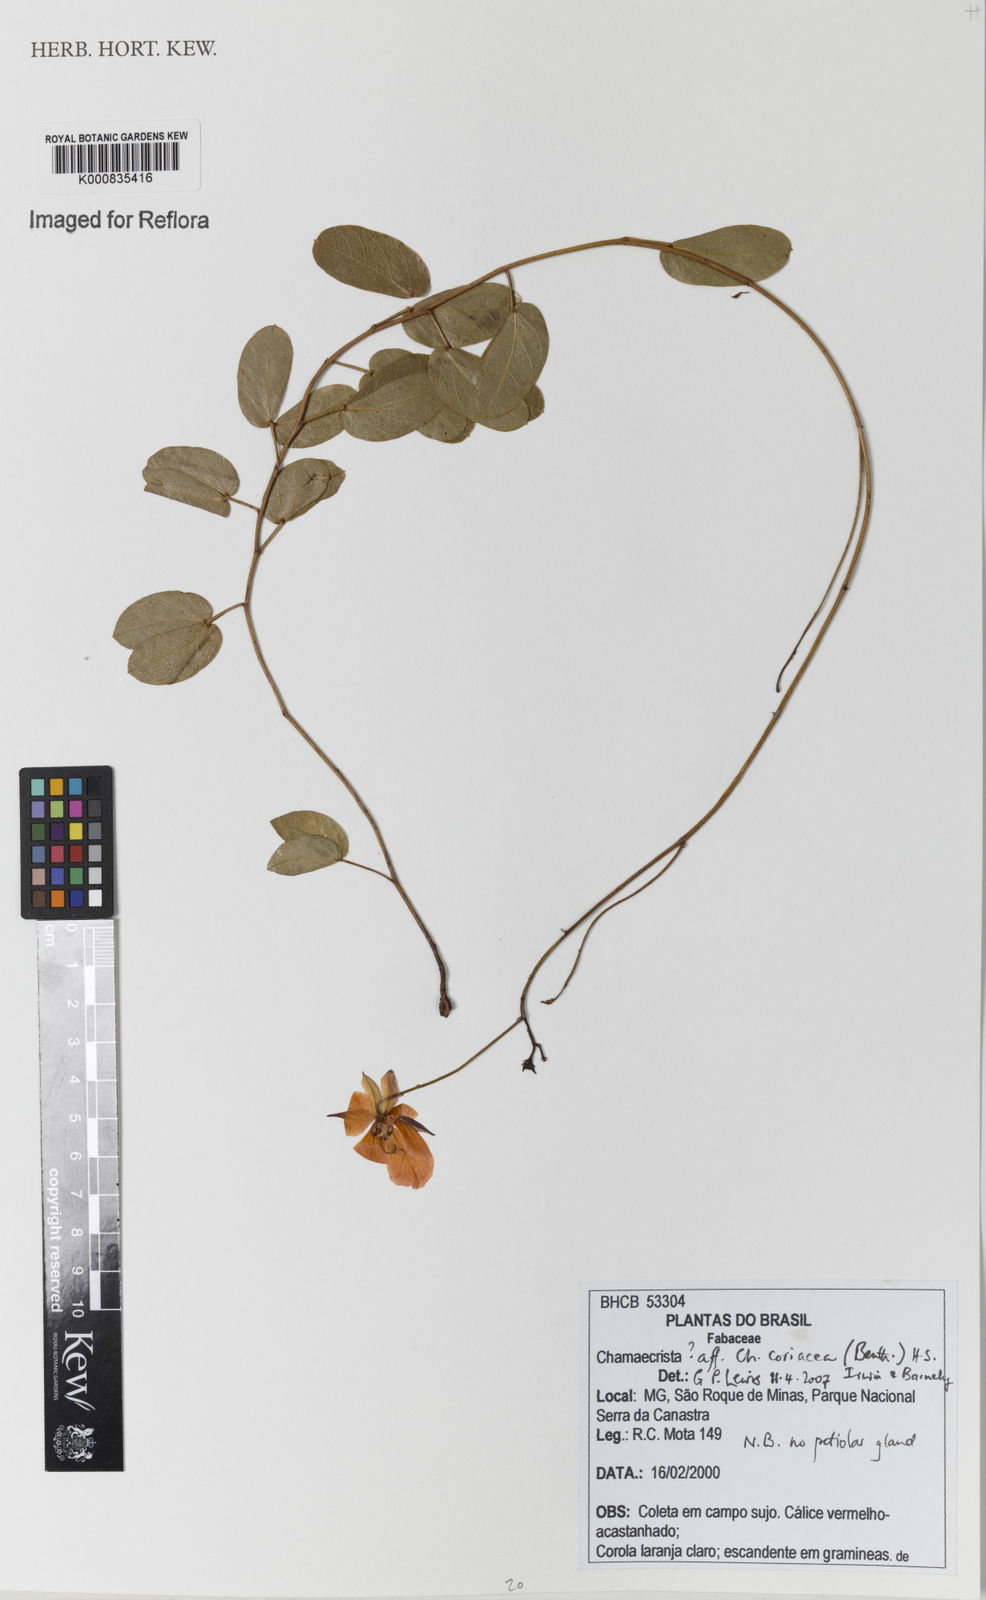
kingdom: Plantae
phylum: Tracheophyta
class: Magnoliopsida
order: Fabales
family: Fabaceae
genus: Chamaecrista
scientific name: Chamaecrista coriacea
